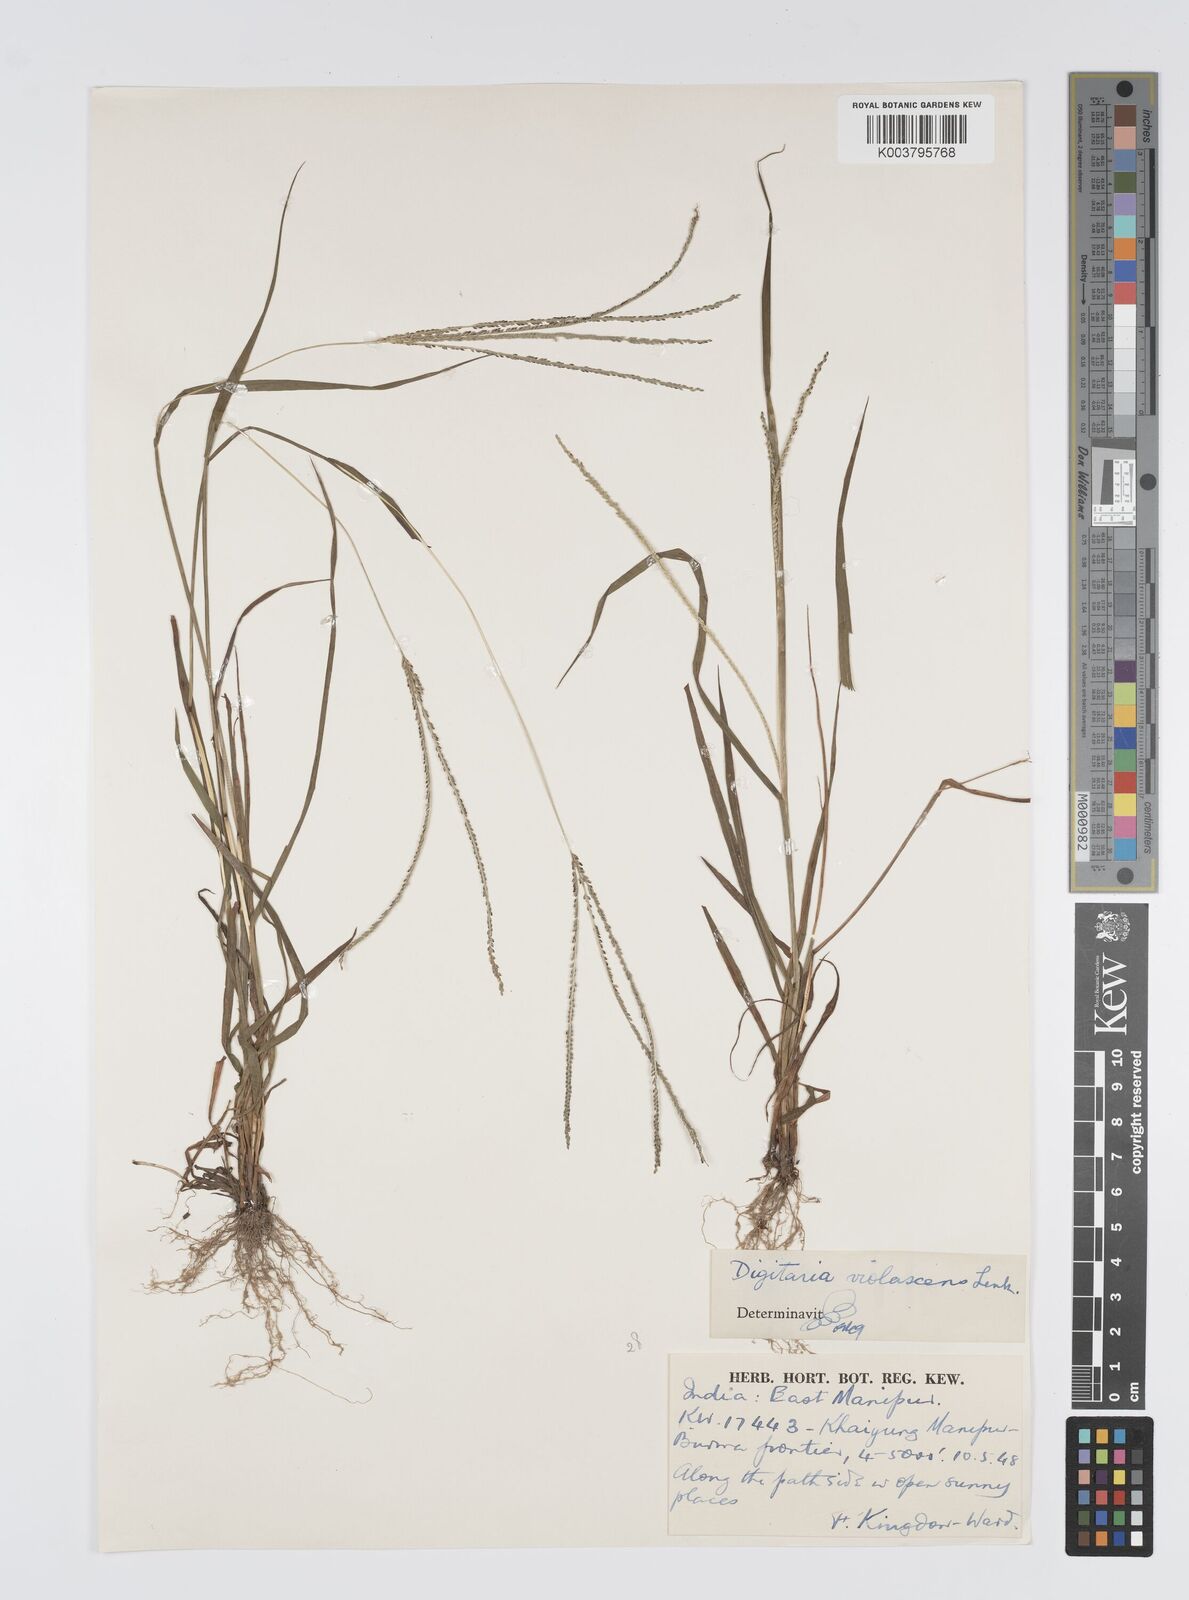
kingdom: Plantae
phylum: Tracheophyta
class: Liliopsida
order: Poales
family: Poaceae
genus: Digitaria
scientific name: Digitaria violascens
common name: Violet crabgrass
